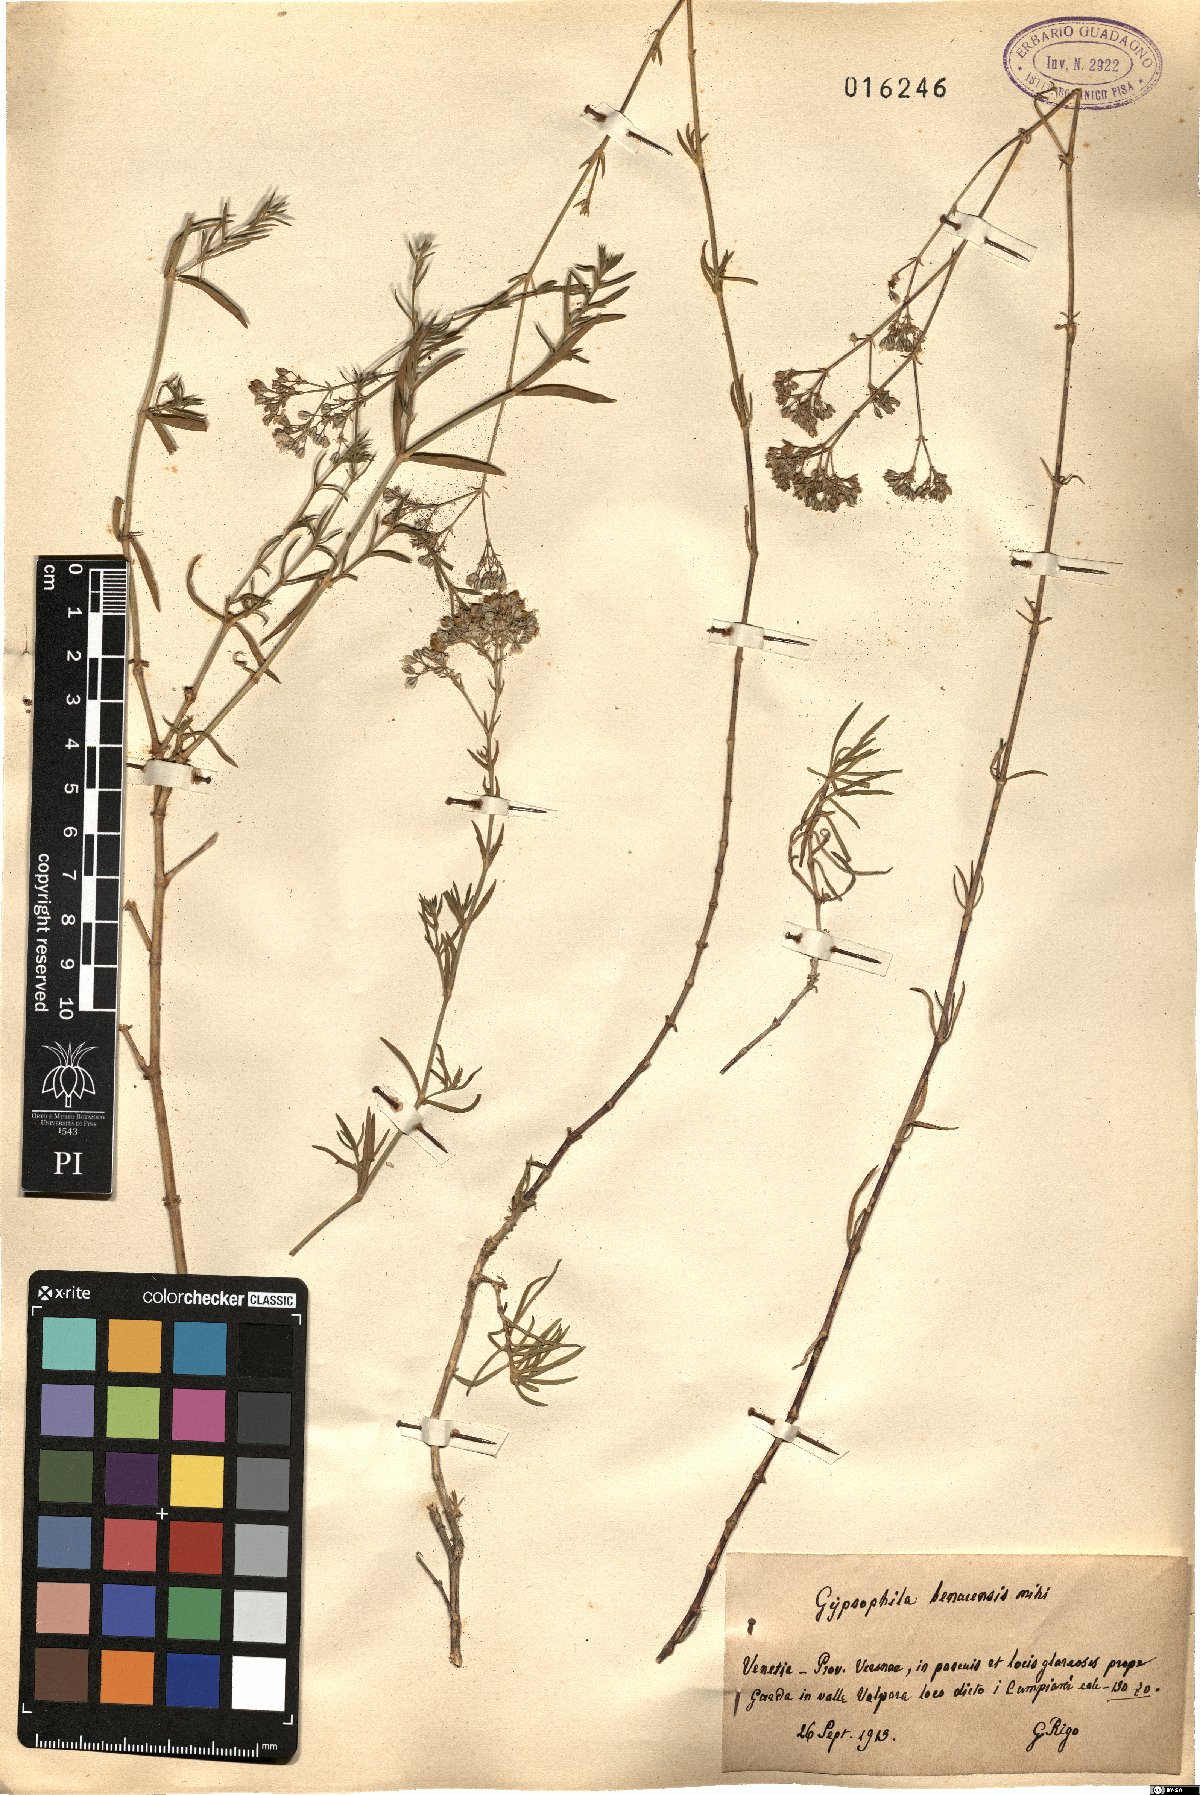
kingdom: Plantae
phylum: Tracheophyta
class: Magnoliopsida
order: Caryophyllales
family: Caryophyllaceae
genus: Gypsophila
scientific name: Gypsophila
